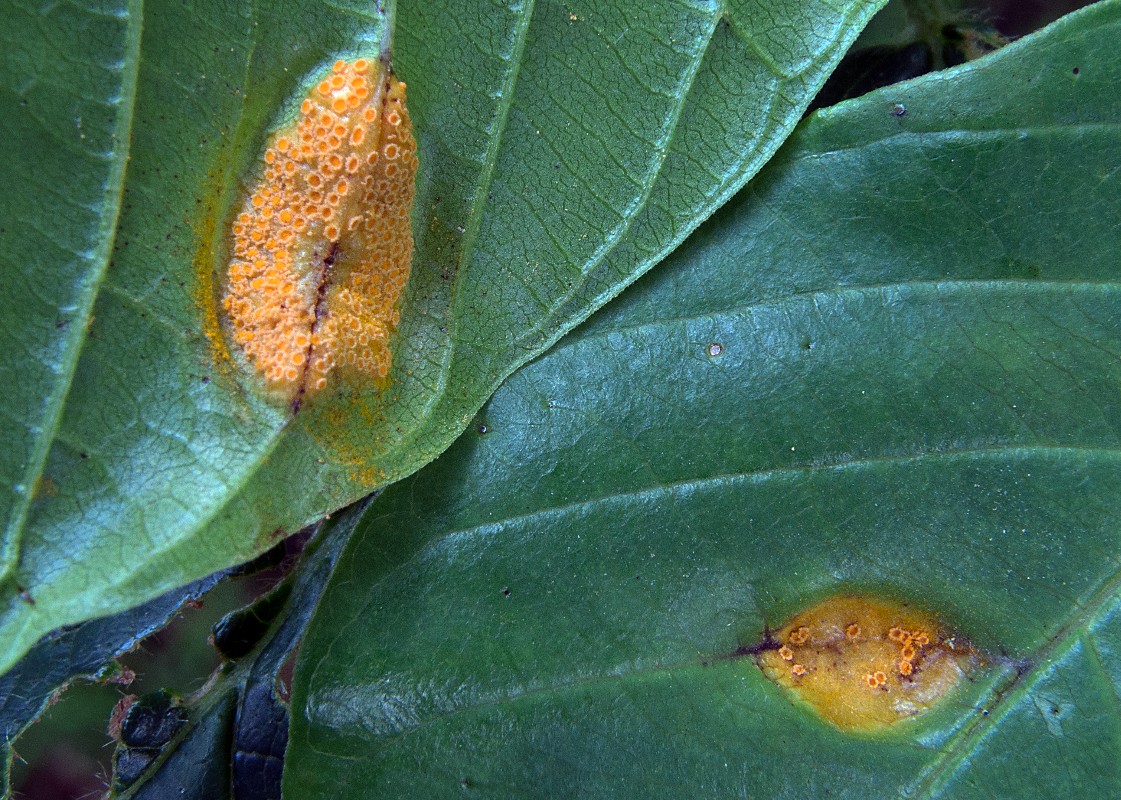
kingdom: Fungi
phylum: Basidiomycota
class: Pucciniomycetes
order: Pucciniales
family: Pucciniaceae
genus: Puccinia
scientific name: Puccinia coronata
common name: Crown rust
